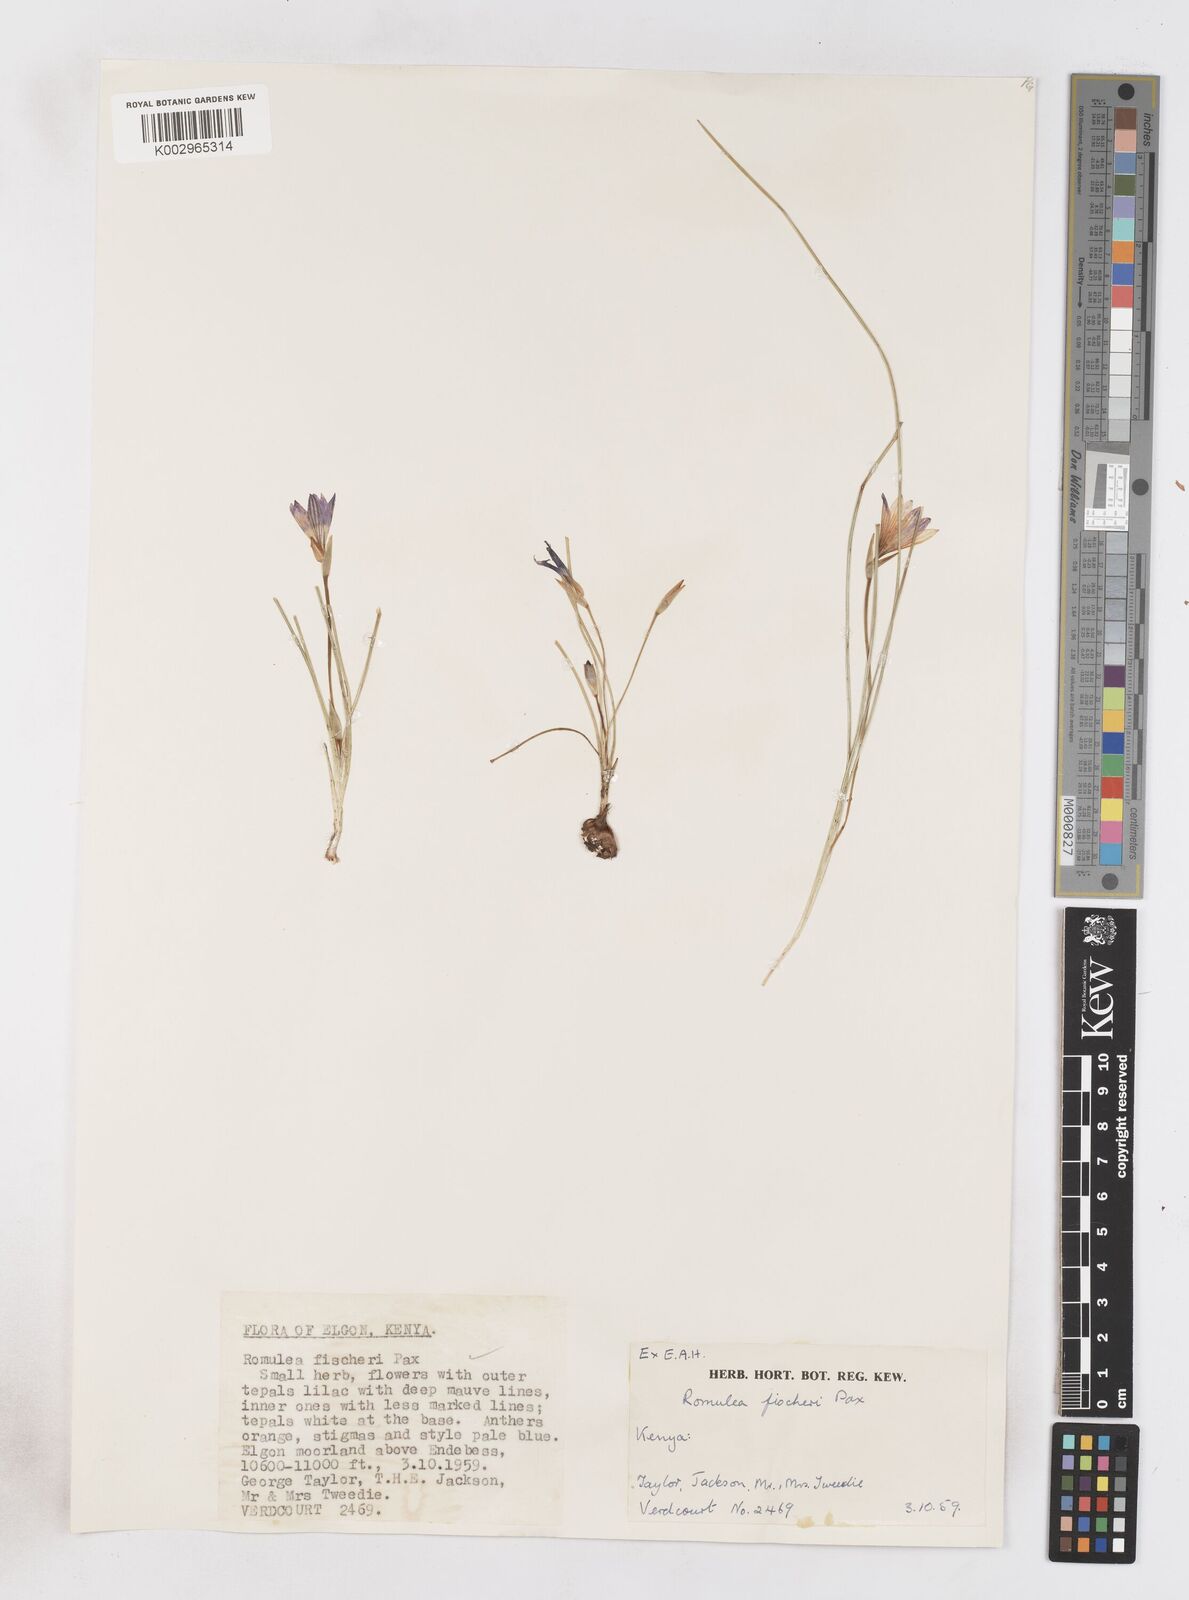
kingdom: Plantae
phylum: Tracheophyta
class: Liliopsida
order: Asparagales
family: Iridaceae
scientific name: Iridaceae
